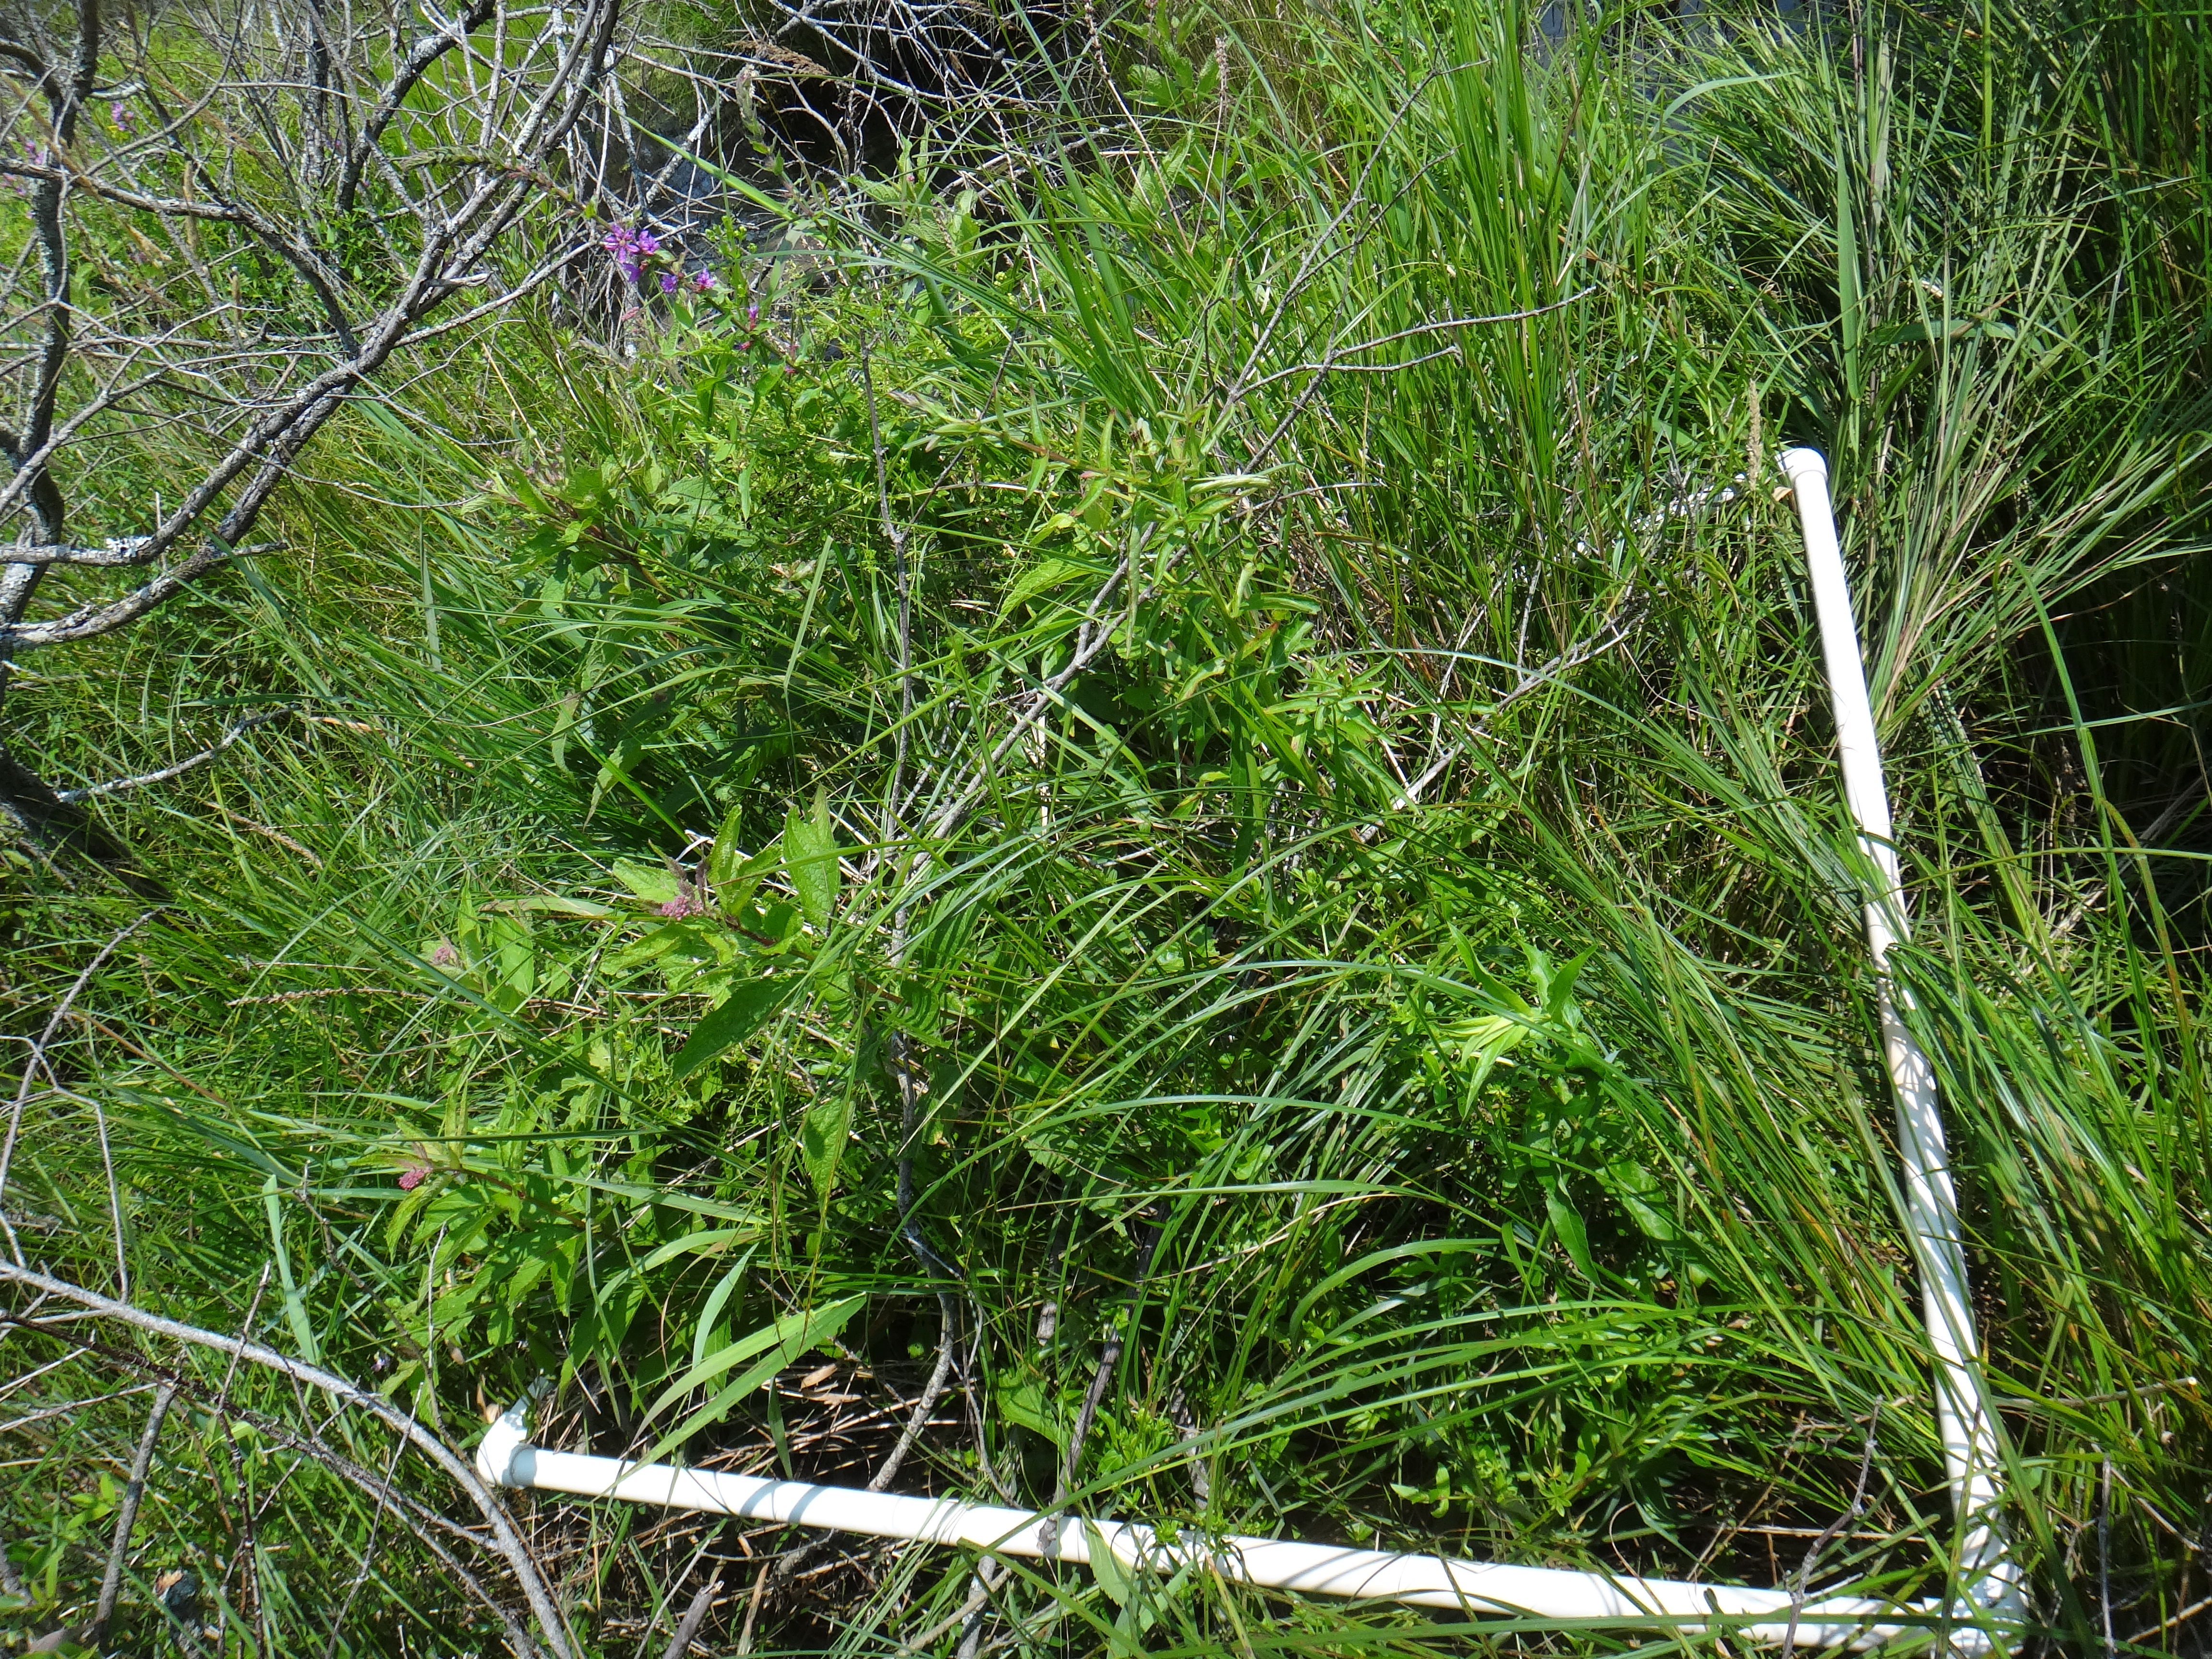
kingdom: Plantae
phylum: Tracheophyta
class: Liliopsida
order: Poales
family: Poaceae
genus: Phalaris
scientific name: Phalaris arundinacea
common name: Reed canary-grass
